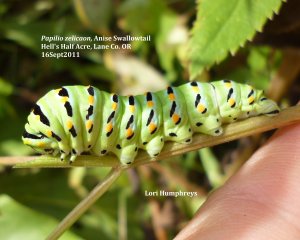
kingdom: Animalia
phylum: Arthropoda
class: Insecta
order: Lepidoptera
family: Papilionidae
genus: Papilio
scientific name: Papilio zelicaon
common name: Anise Swallowtail
